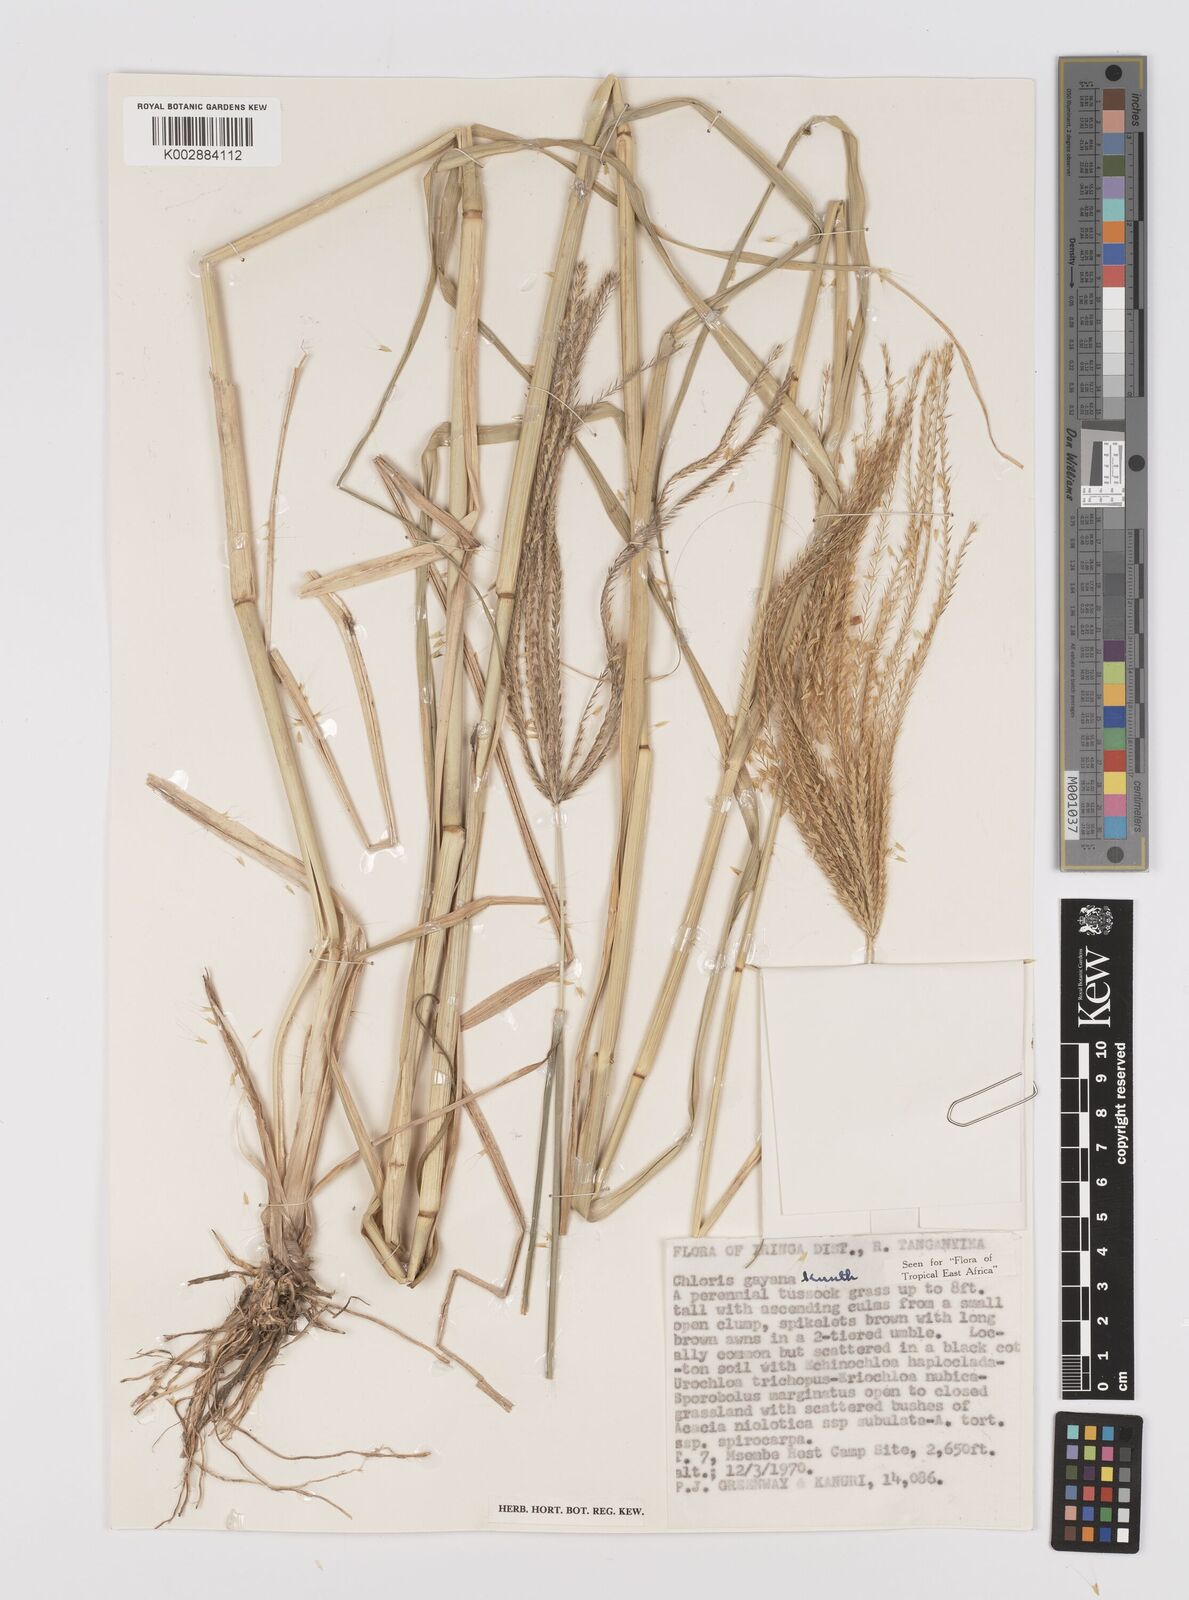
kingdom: Plantae
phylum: Tracheophyta
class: Liliopsida
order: Poales
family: Poaceae
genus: Chloris
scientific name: Chloris gayana
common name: Rhodes grass
